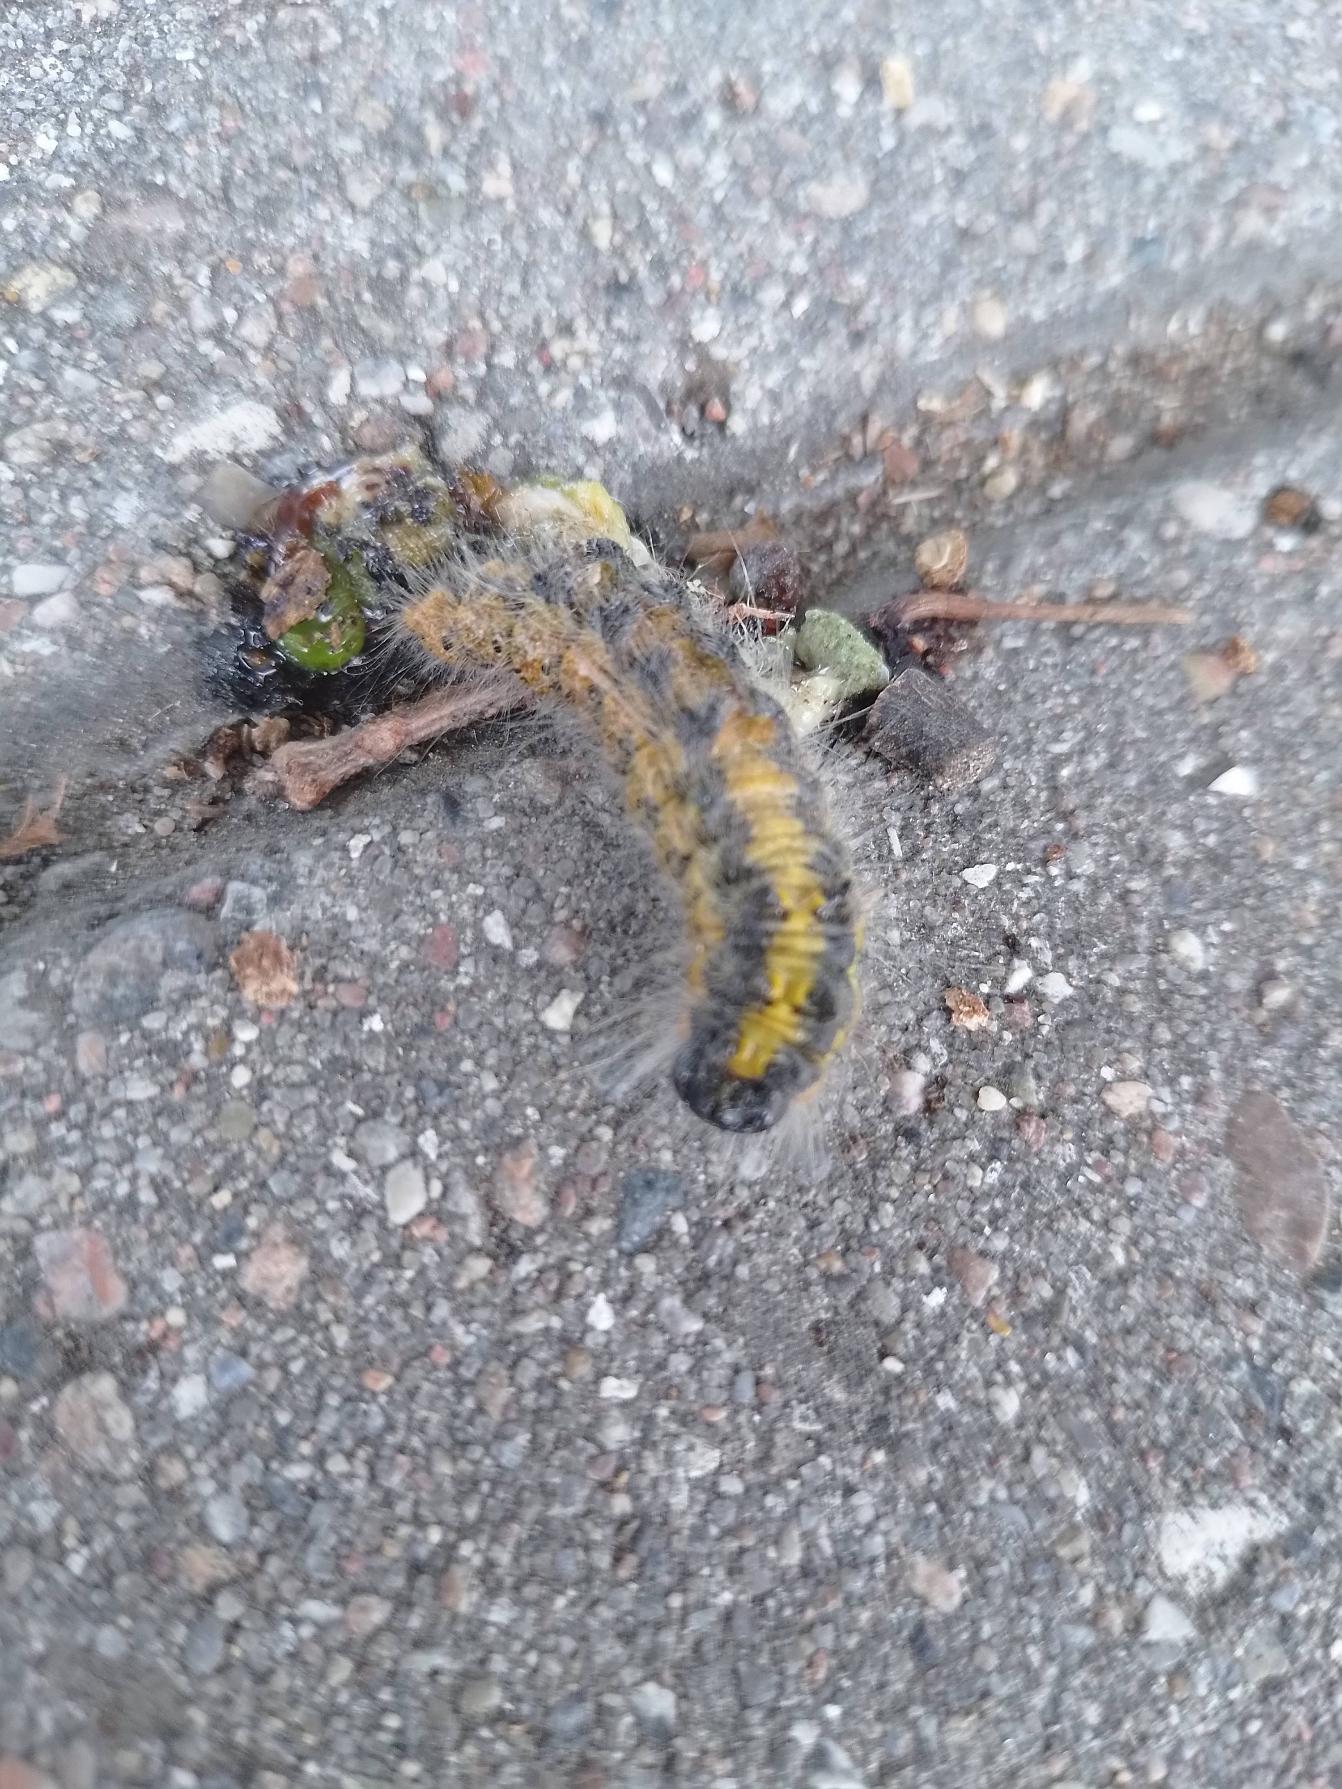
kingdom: Animalia
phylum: Arthropoda
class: Insecta
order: Lepidoptera
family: Notodontidae
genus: Phalera
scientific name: Phalera bucephala
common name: Måneplet
